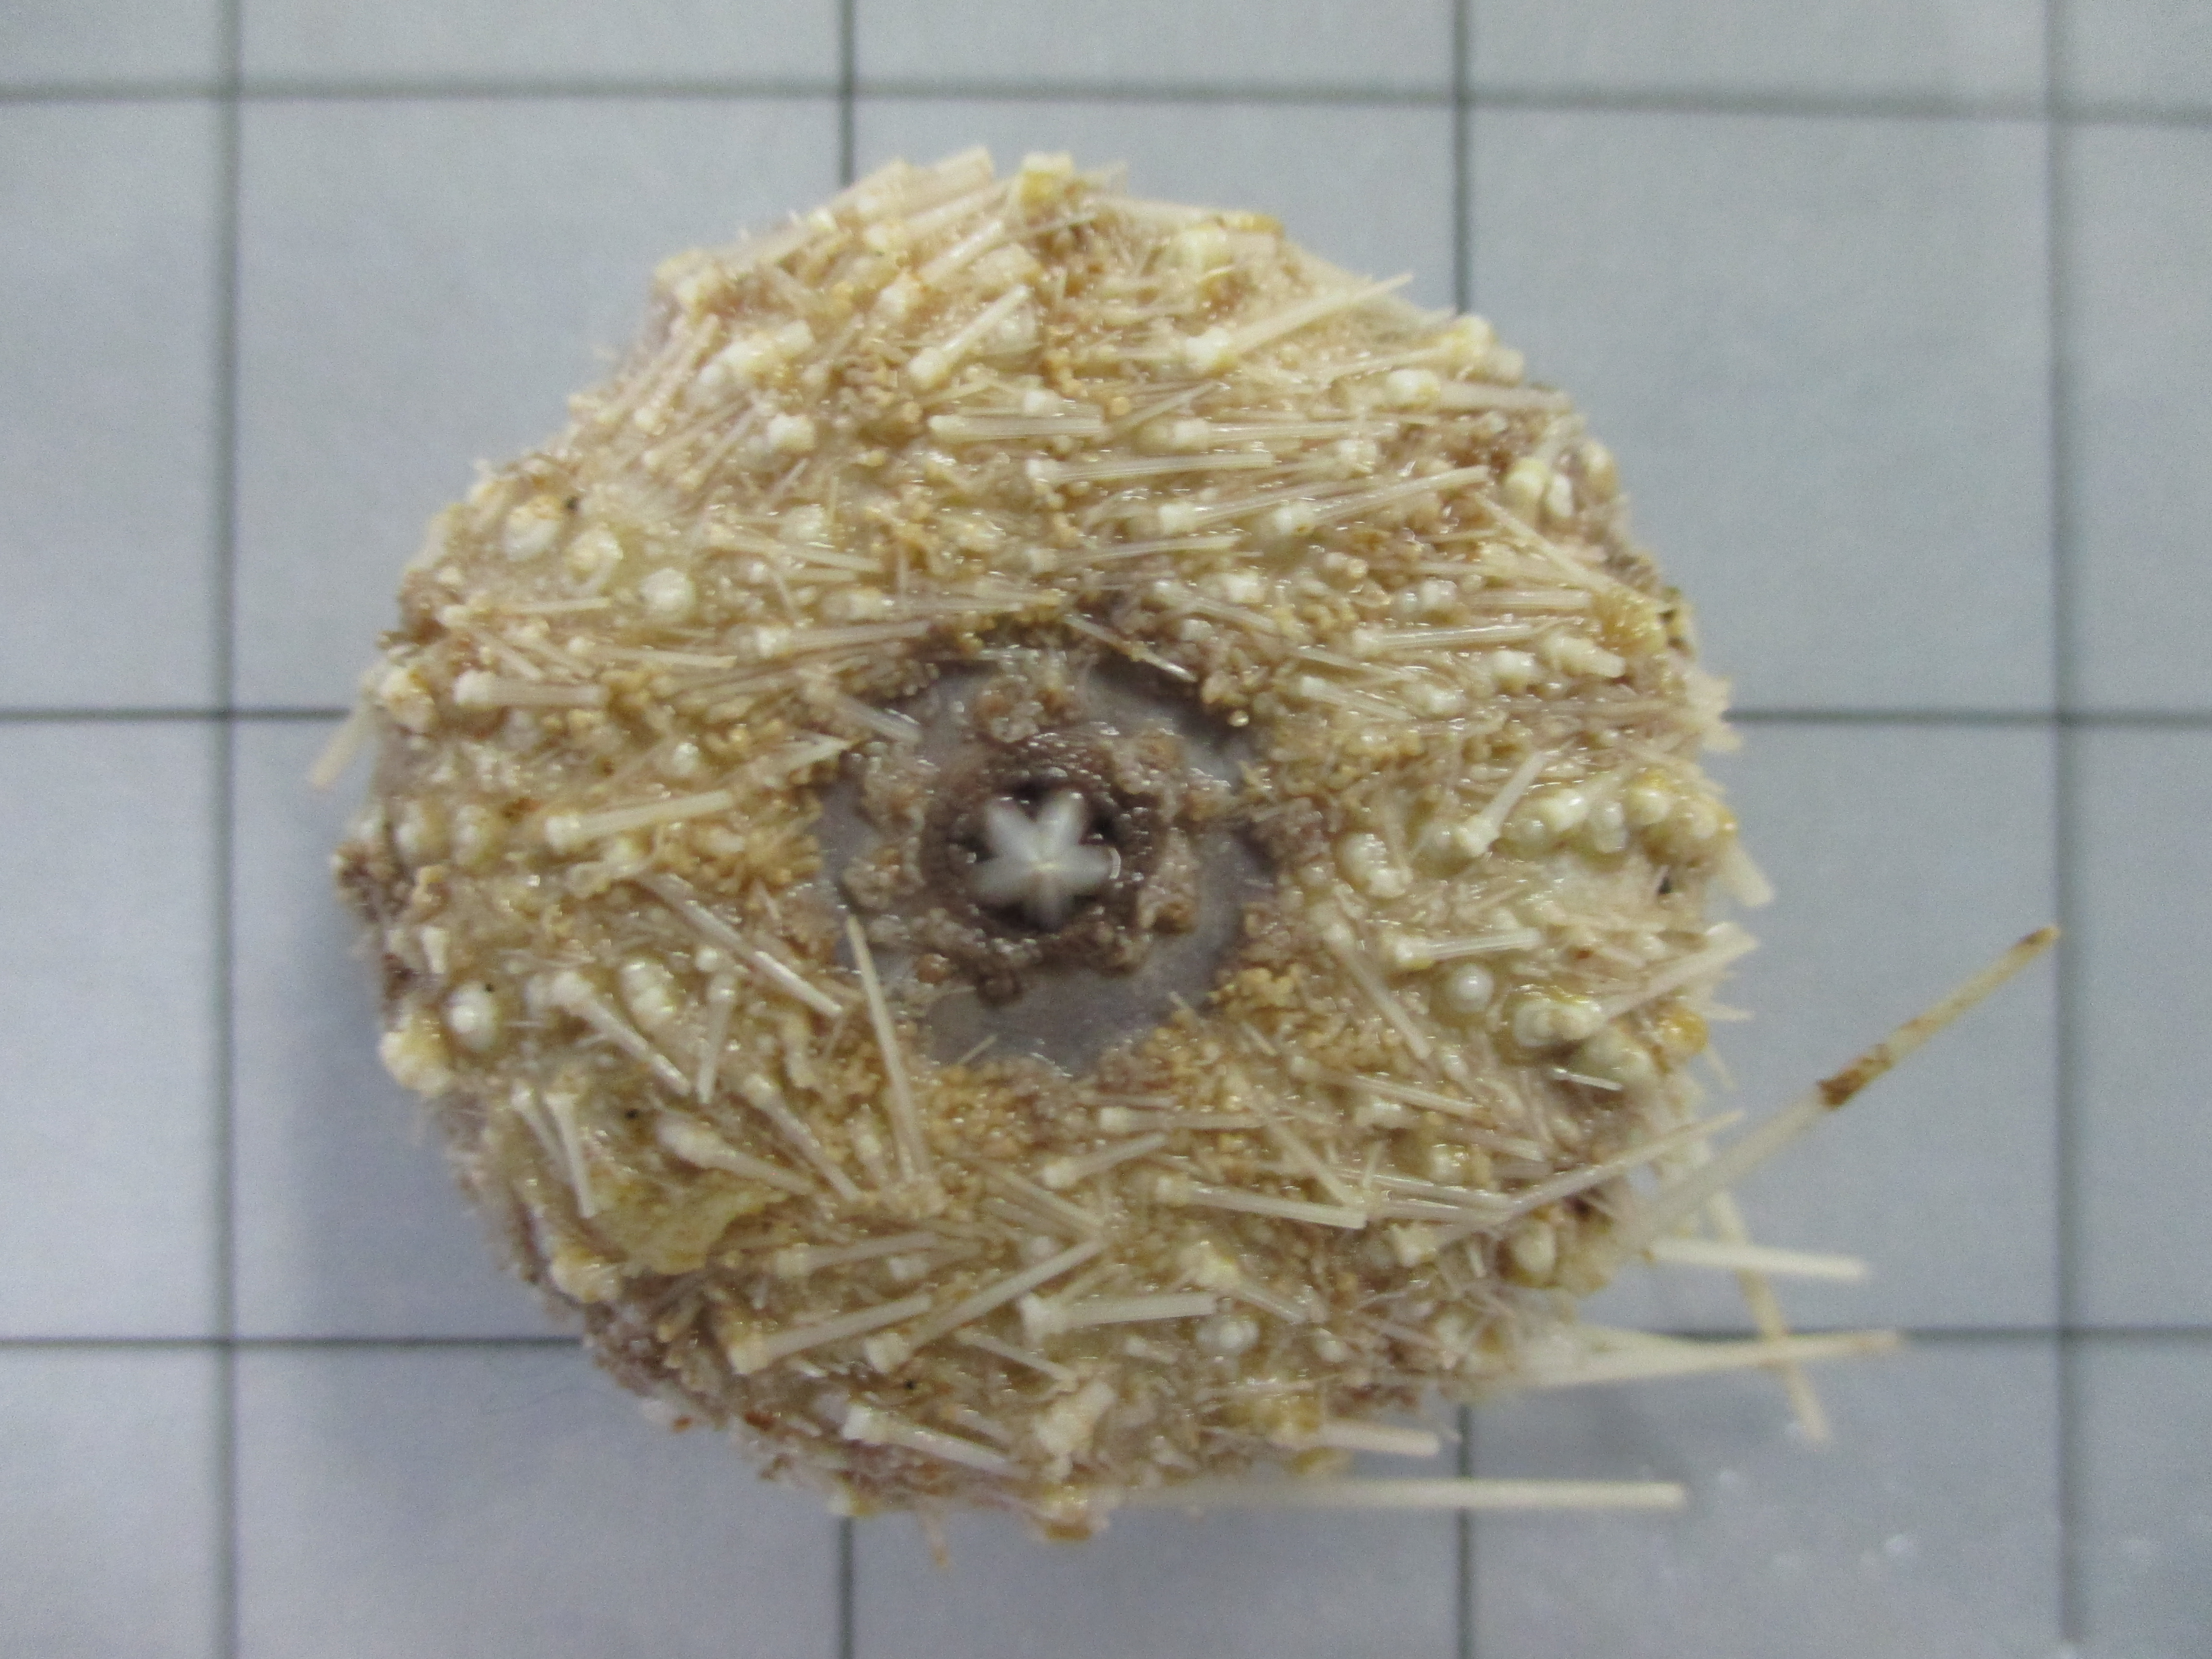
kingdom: Animalia
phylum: Echinodermata
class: Echinoidea
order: Camarodonta
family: Echinidae
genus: Echinus
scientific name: Echinus gilchristi
